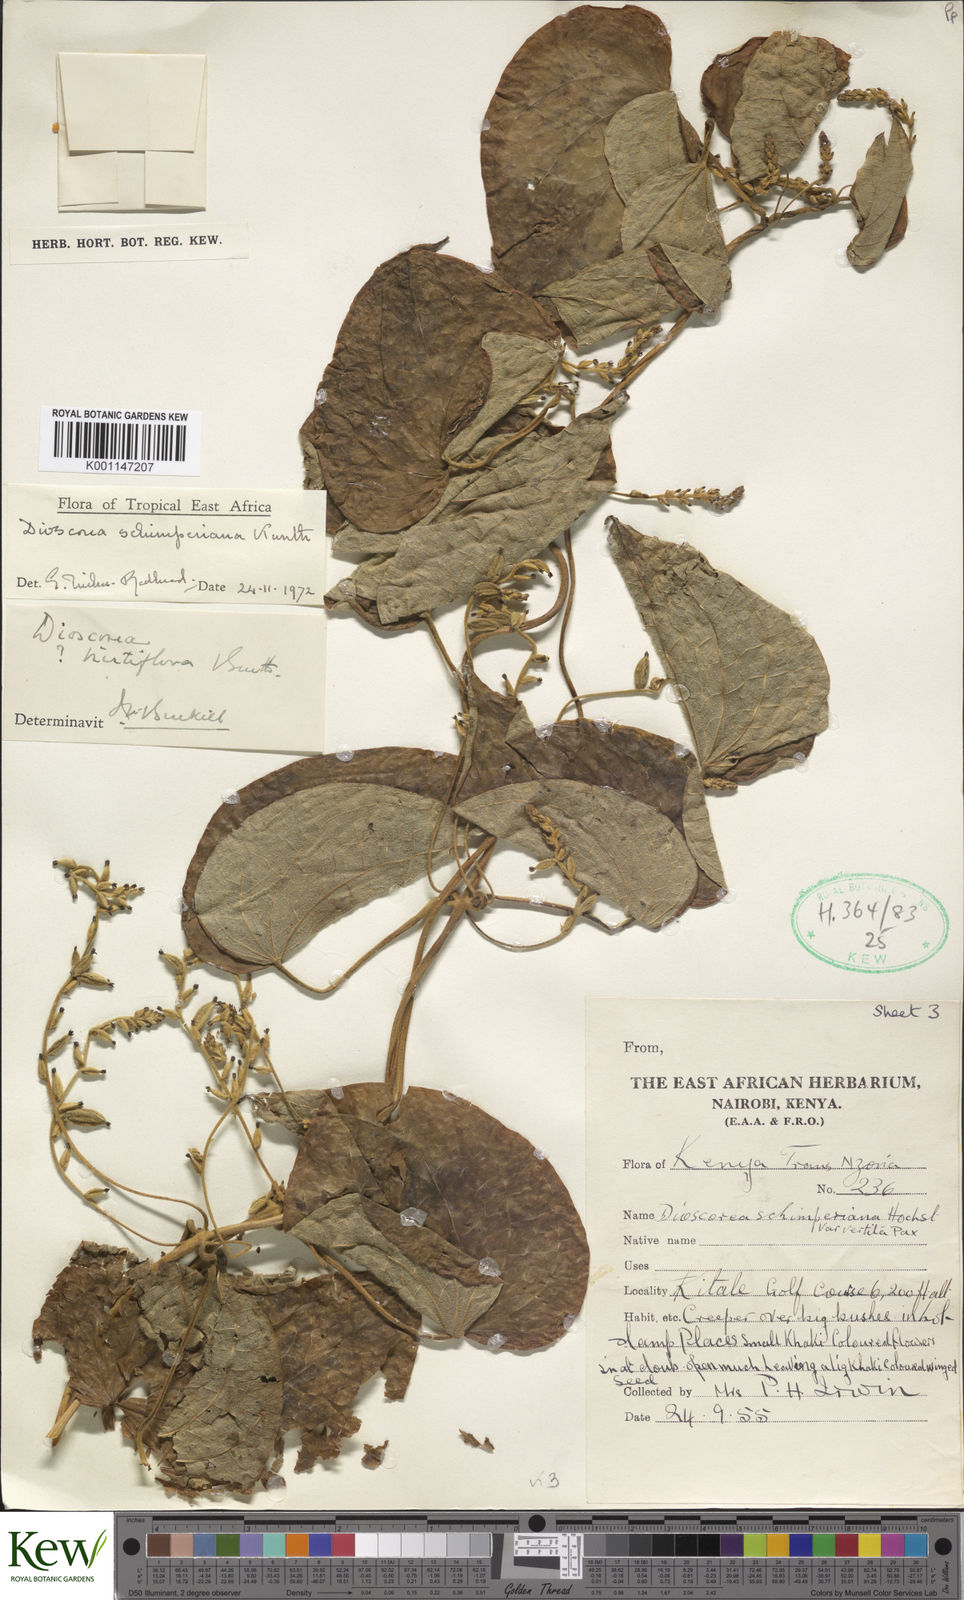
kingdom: Plantae
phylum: Tracheophyta
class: Liliopsida
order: Dioscoreales
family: Dioscoreaceae
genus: Dioscorea
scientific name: Dioscorea schimperiana
